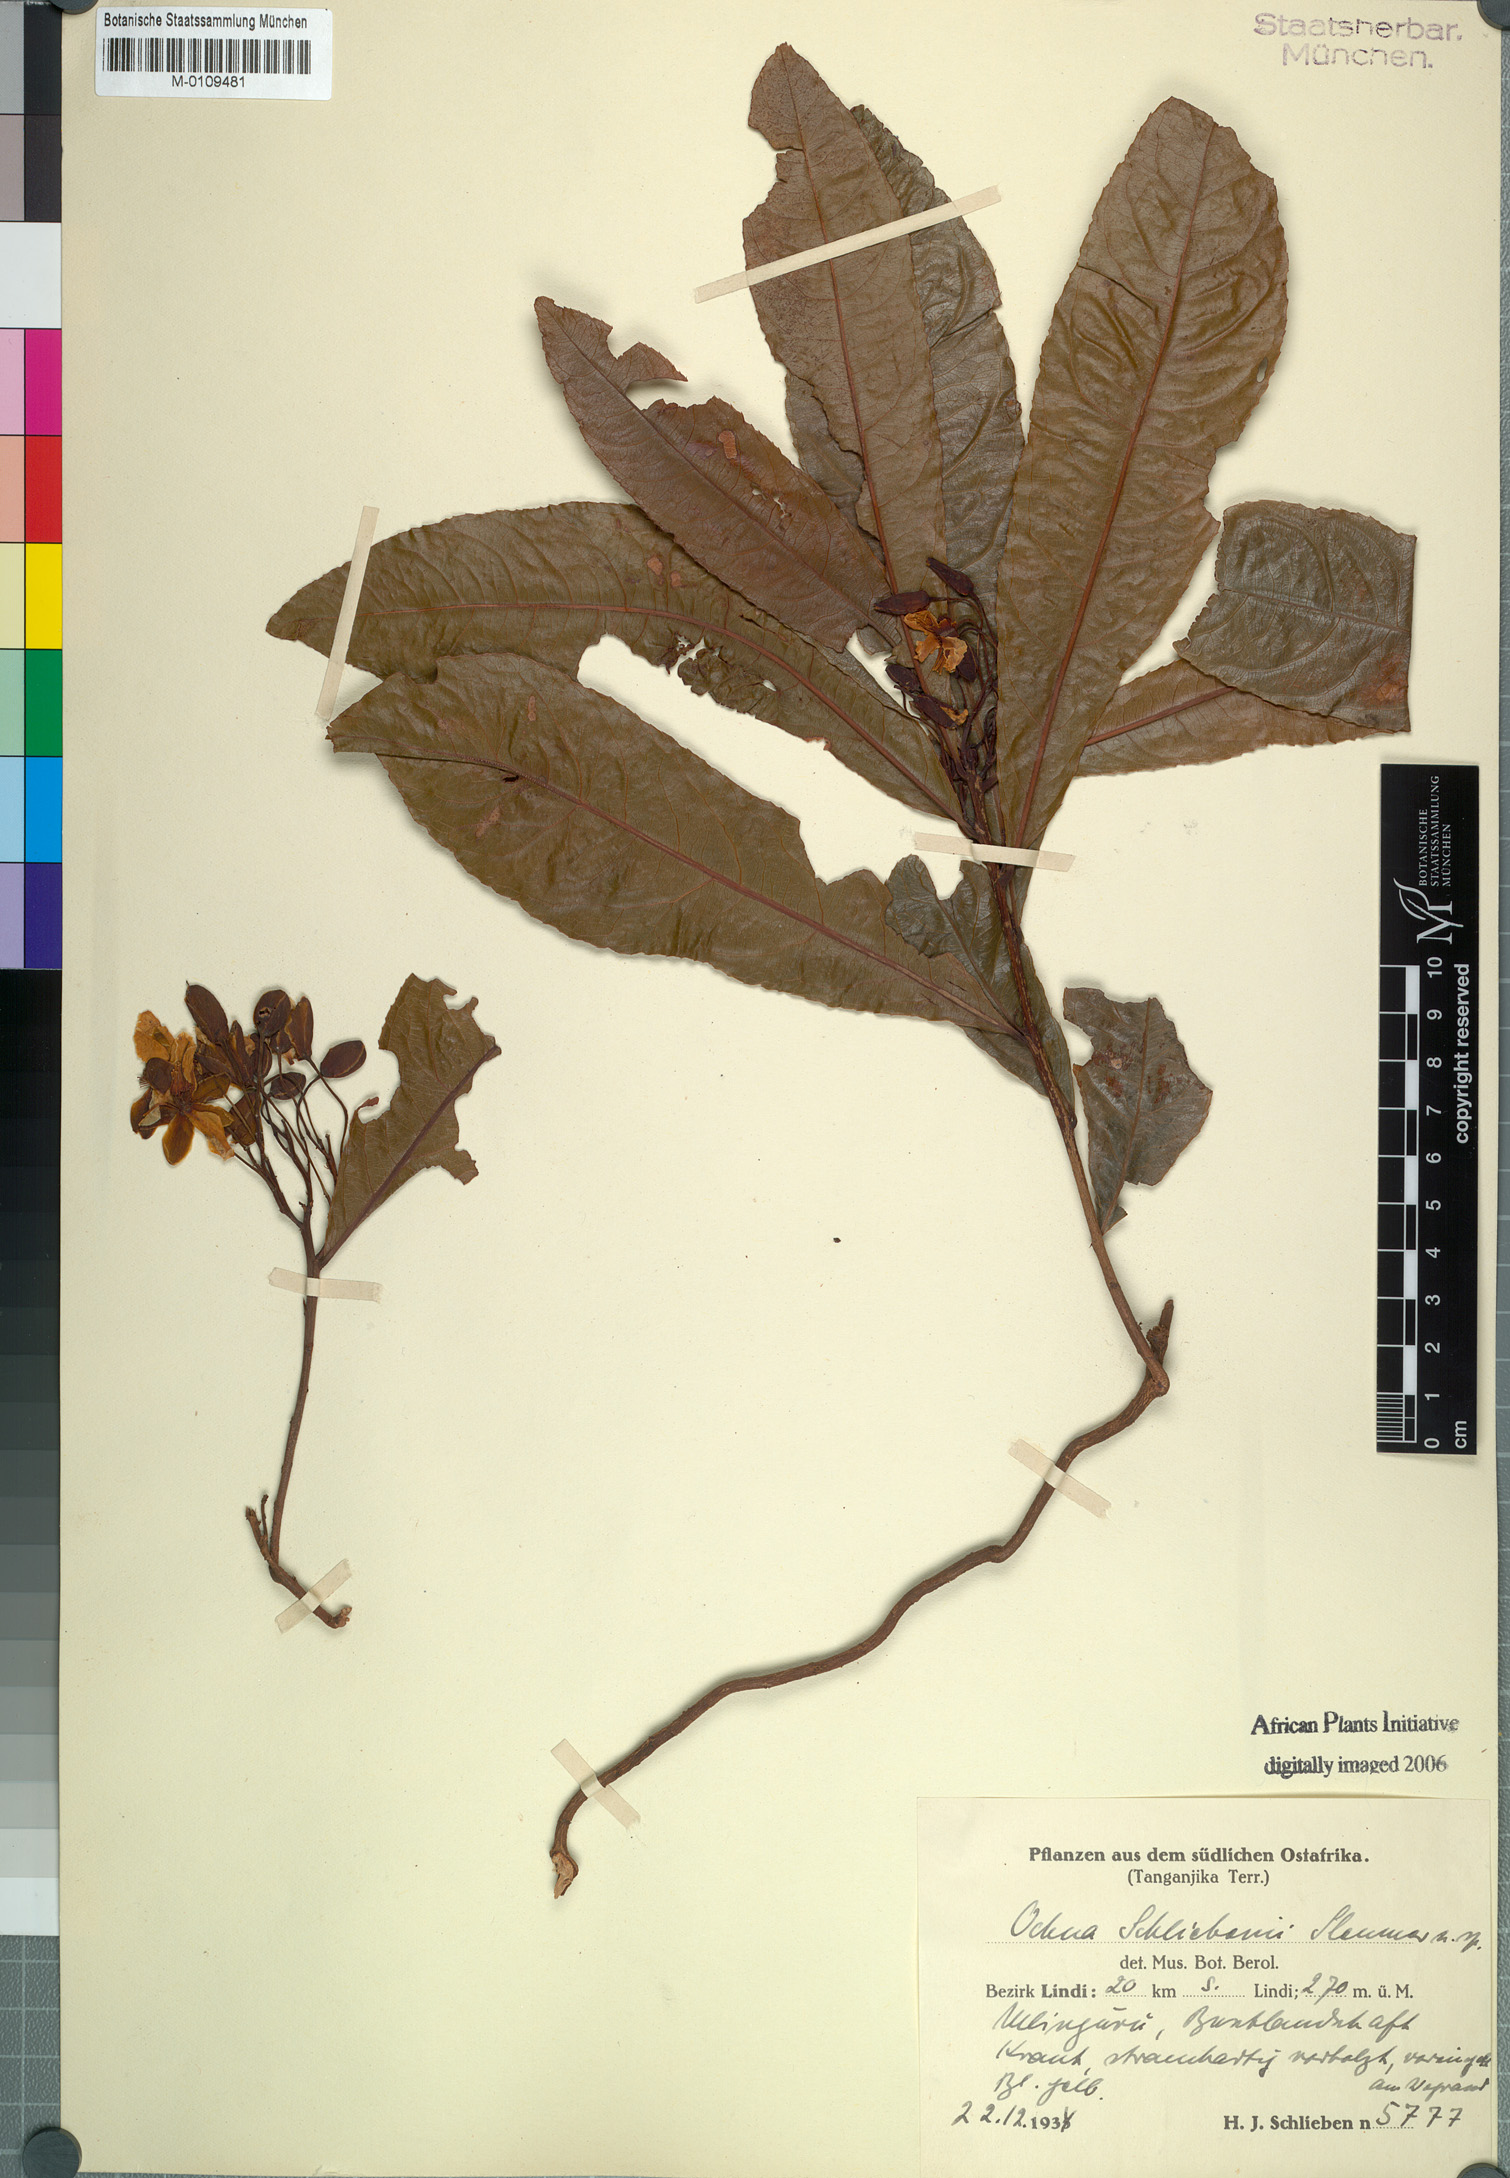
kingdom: Plantae
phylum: Tracheophyta
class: Magnoliopsida
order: Malpighiales
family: Ochnaceae
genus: Ochna
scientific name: Ochna schliebenii
